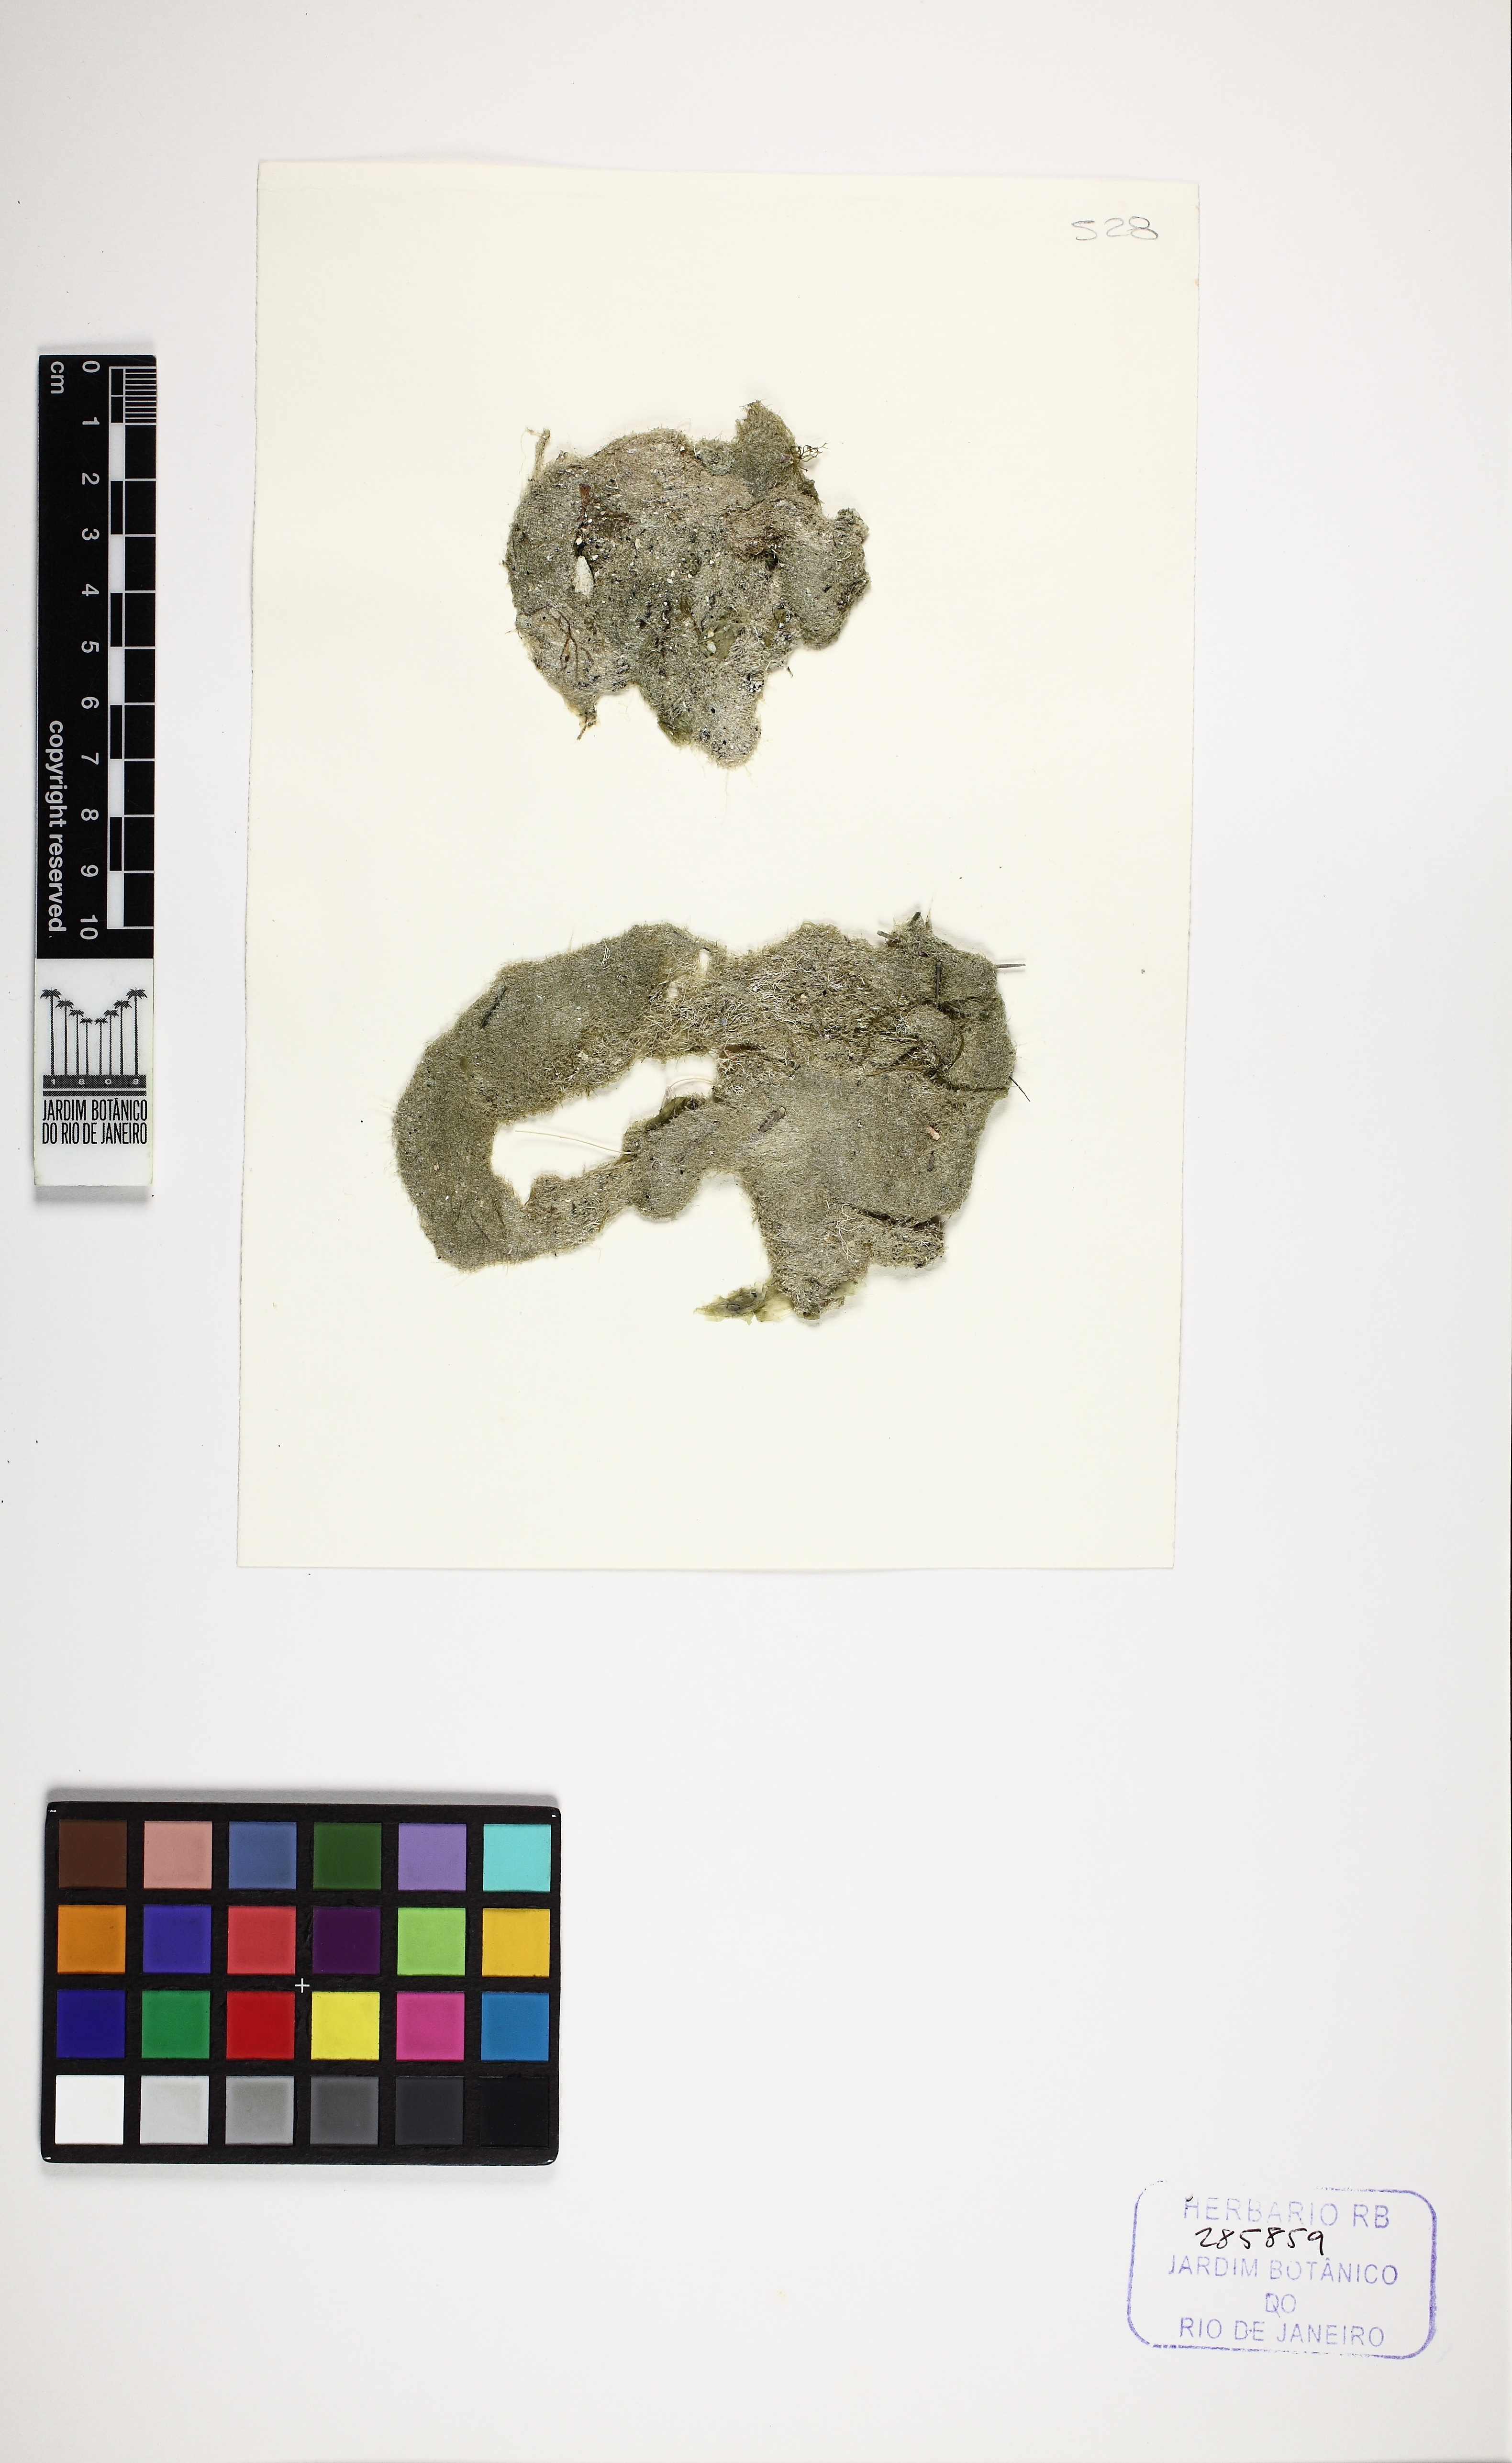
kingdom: Plantae
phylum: Chlorophyta
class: Ulvophyceae
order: Siphonocladales
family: Boodleaceae
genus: Cladophoropsis
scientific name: Cladophoropsis membranacea
